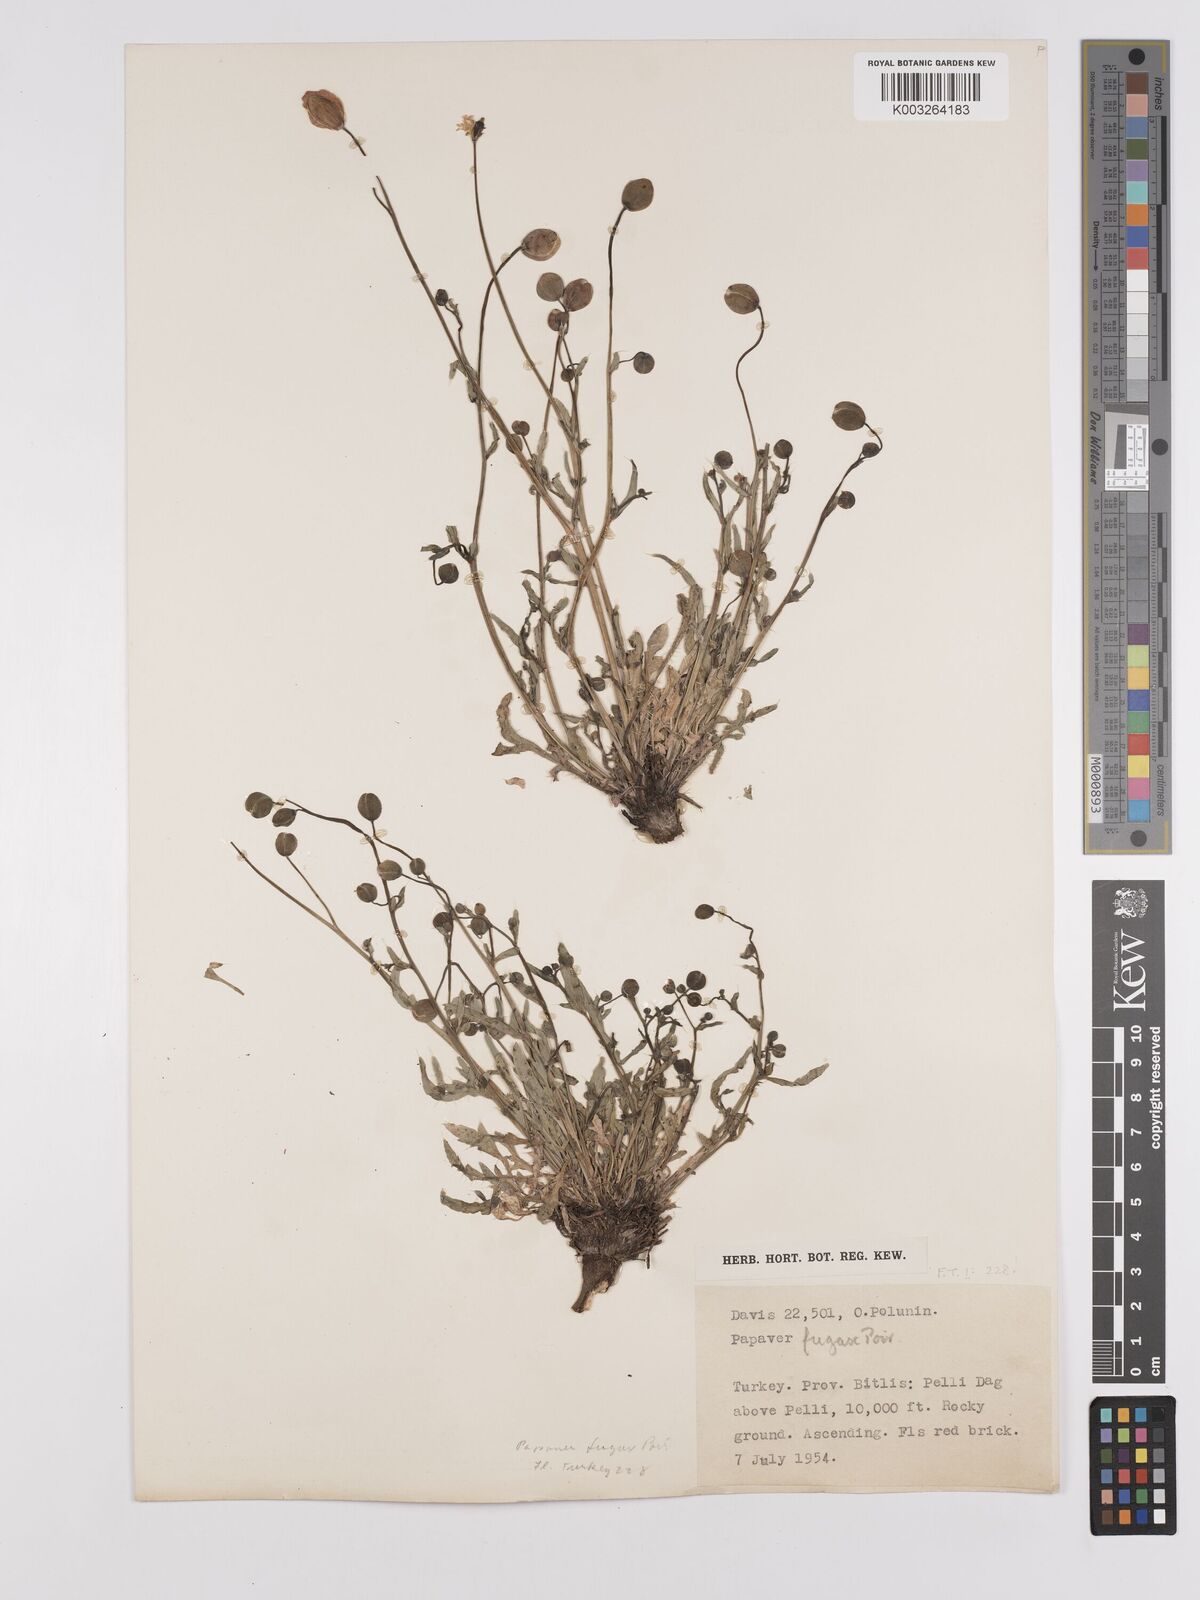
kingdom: Plantae
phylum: Tracheophyta
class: Magnoliopsida
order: Ranunculales
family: Papaveraceae
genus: Papaver
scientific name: Papaver armeniacum
